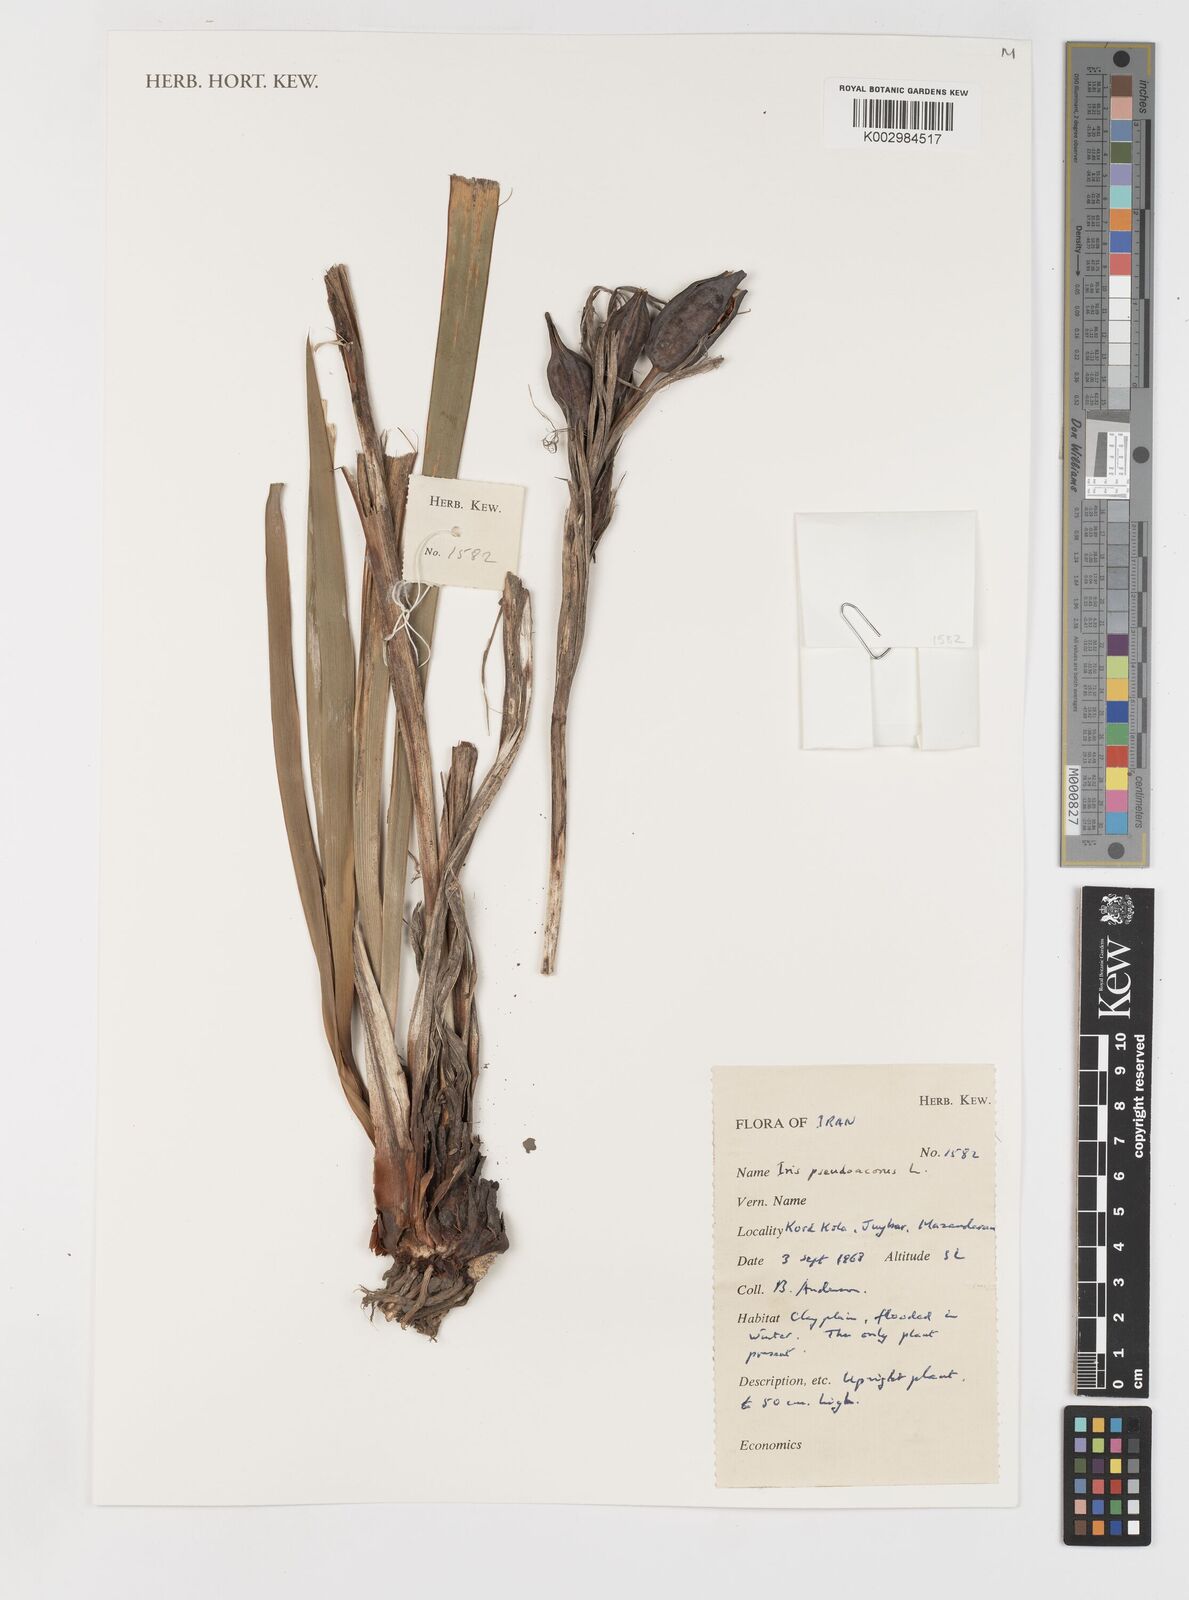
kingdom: Plantae
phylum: Tracheophyta
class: Liliopsida
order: Asparagales
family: Iridaceae
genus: Iris
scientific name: Iris pseudacorus
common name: Yellow flag
